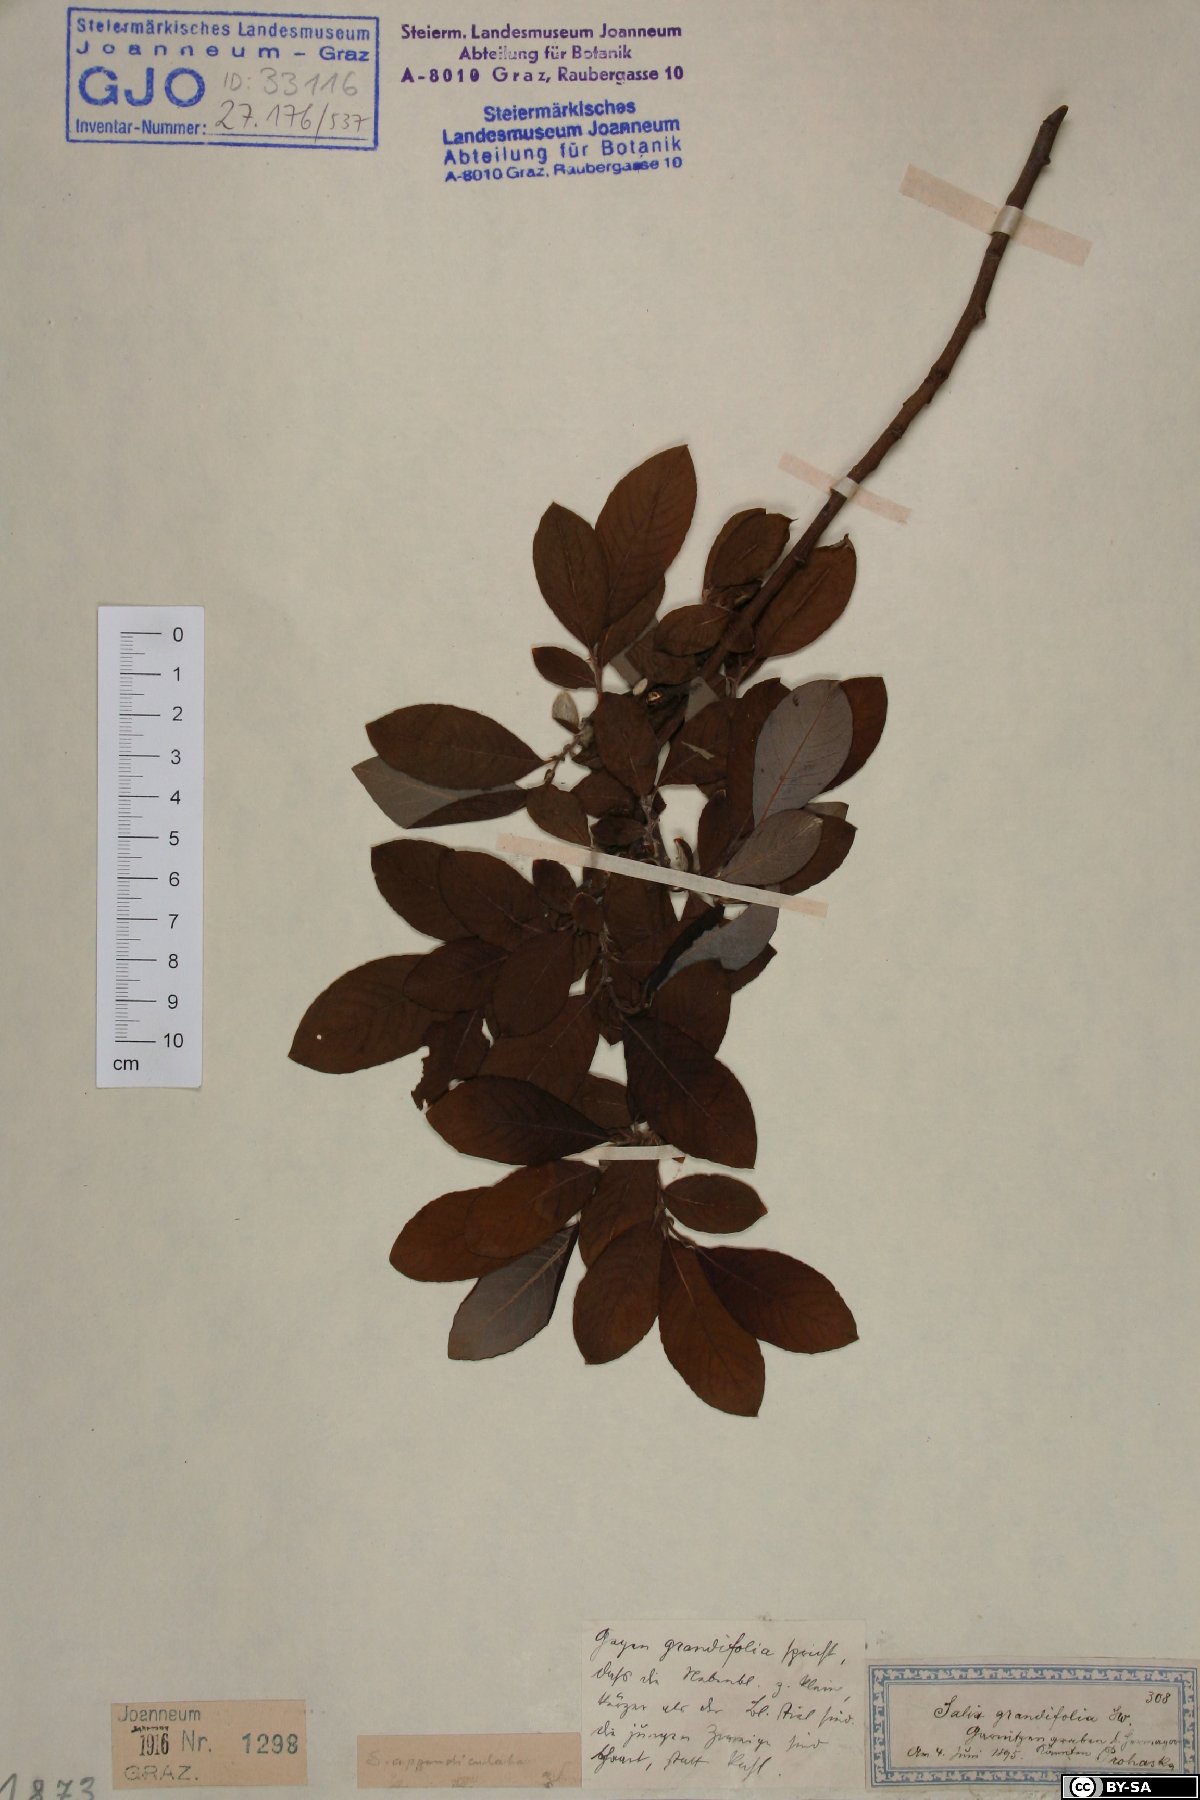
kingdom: Plantae
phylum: Tracheophyta
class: Magnoliopsida
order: Malpighiales
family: Salicaceae
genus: Salix
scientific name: Salix appendiculata
